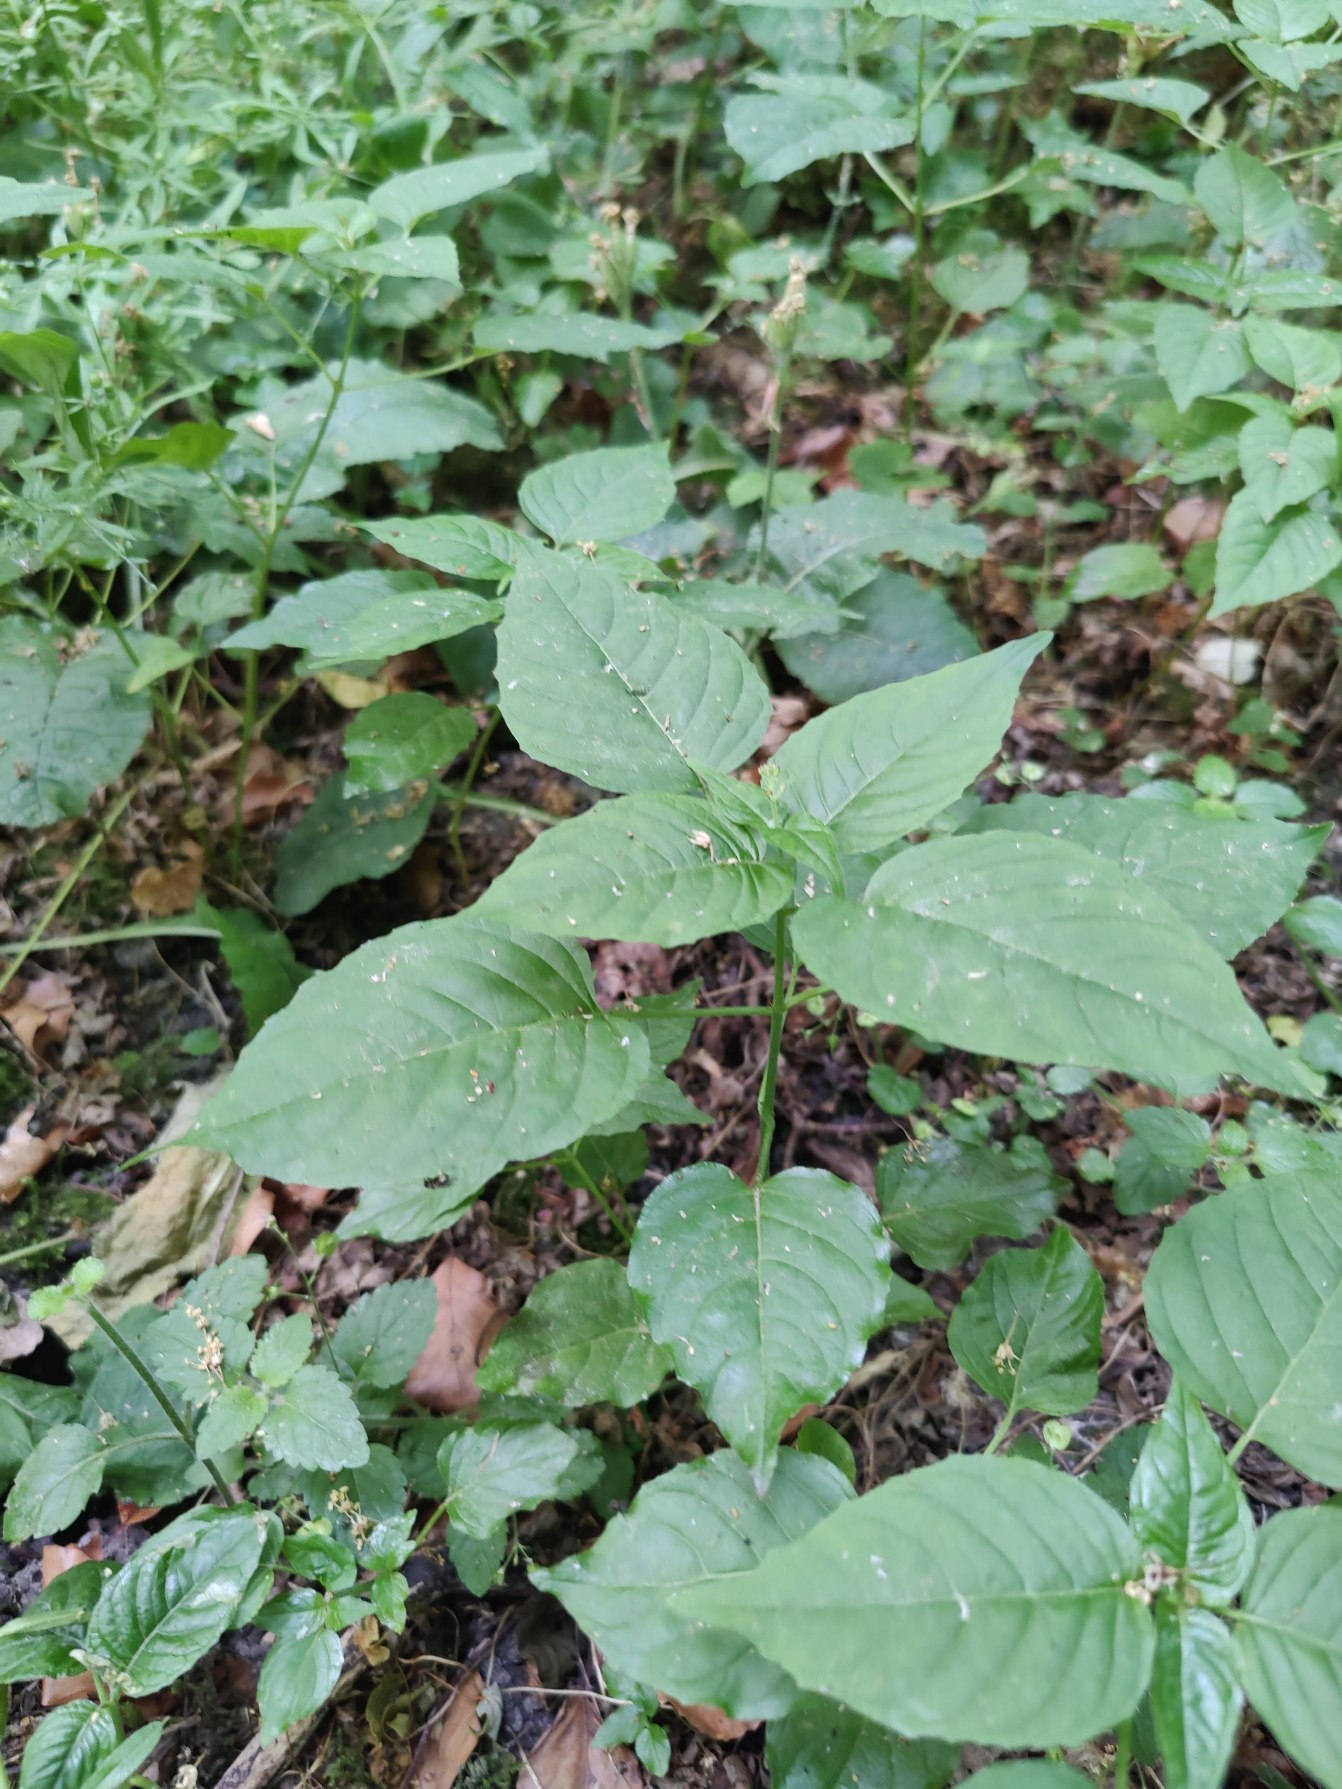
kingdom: Plantae
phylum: Tracheophyta
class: Magnoliopsida
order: Myrtales
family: Onagraceae
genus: Circaea
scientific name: Circaea lutetiana
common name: Dunet steffensurt
